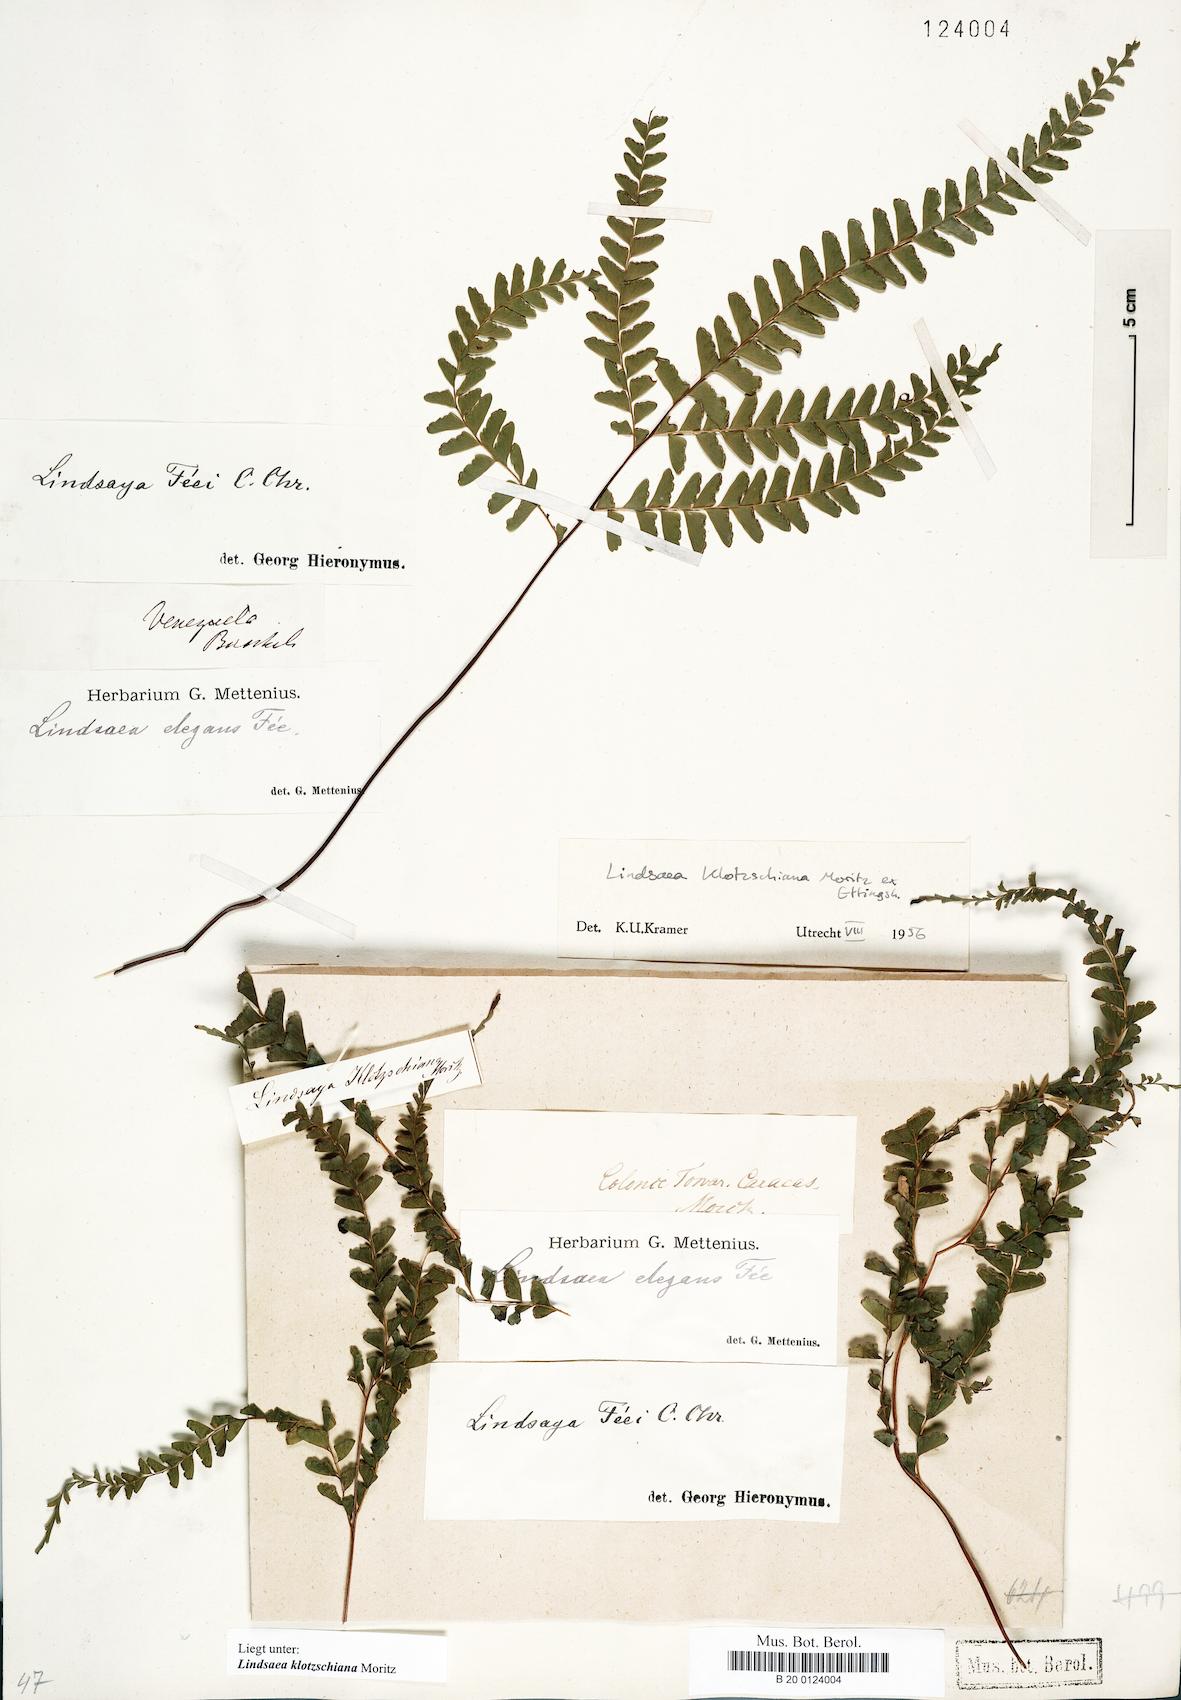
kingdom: Plantae
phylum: Tracheophyta
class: Polypodiopsida
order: Polypodiales
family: Lindsaeaceae
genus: Lindsaea
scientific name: Lindsaea feei
